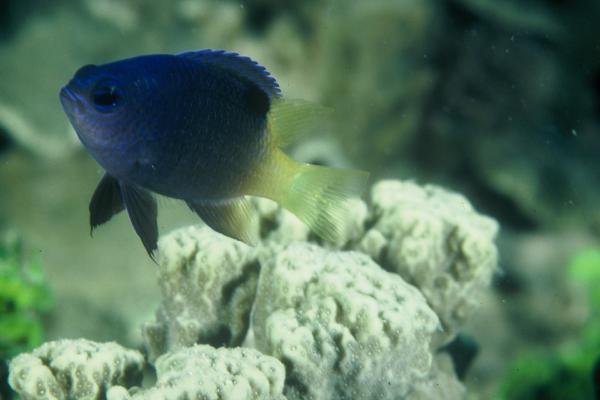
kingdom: Animalia
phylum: Chordata
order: Perciformes
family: Pomacentridae
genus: Chrysiptera
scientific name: Chrysiptera traceyi
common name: Tracey's demoiselle
